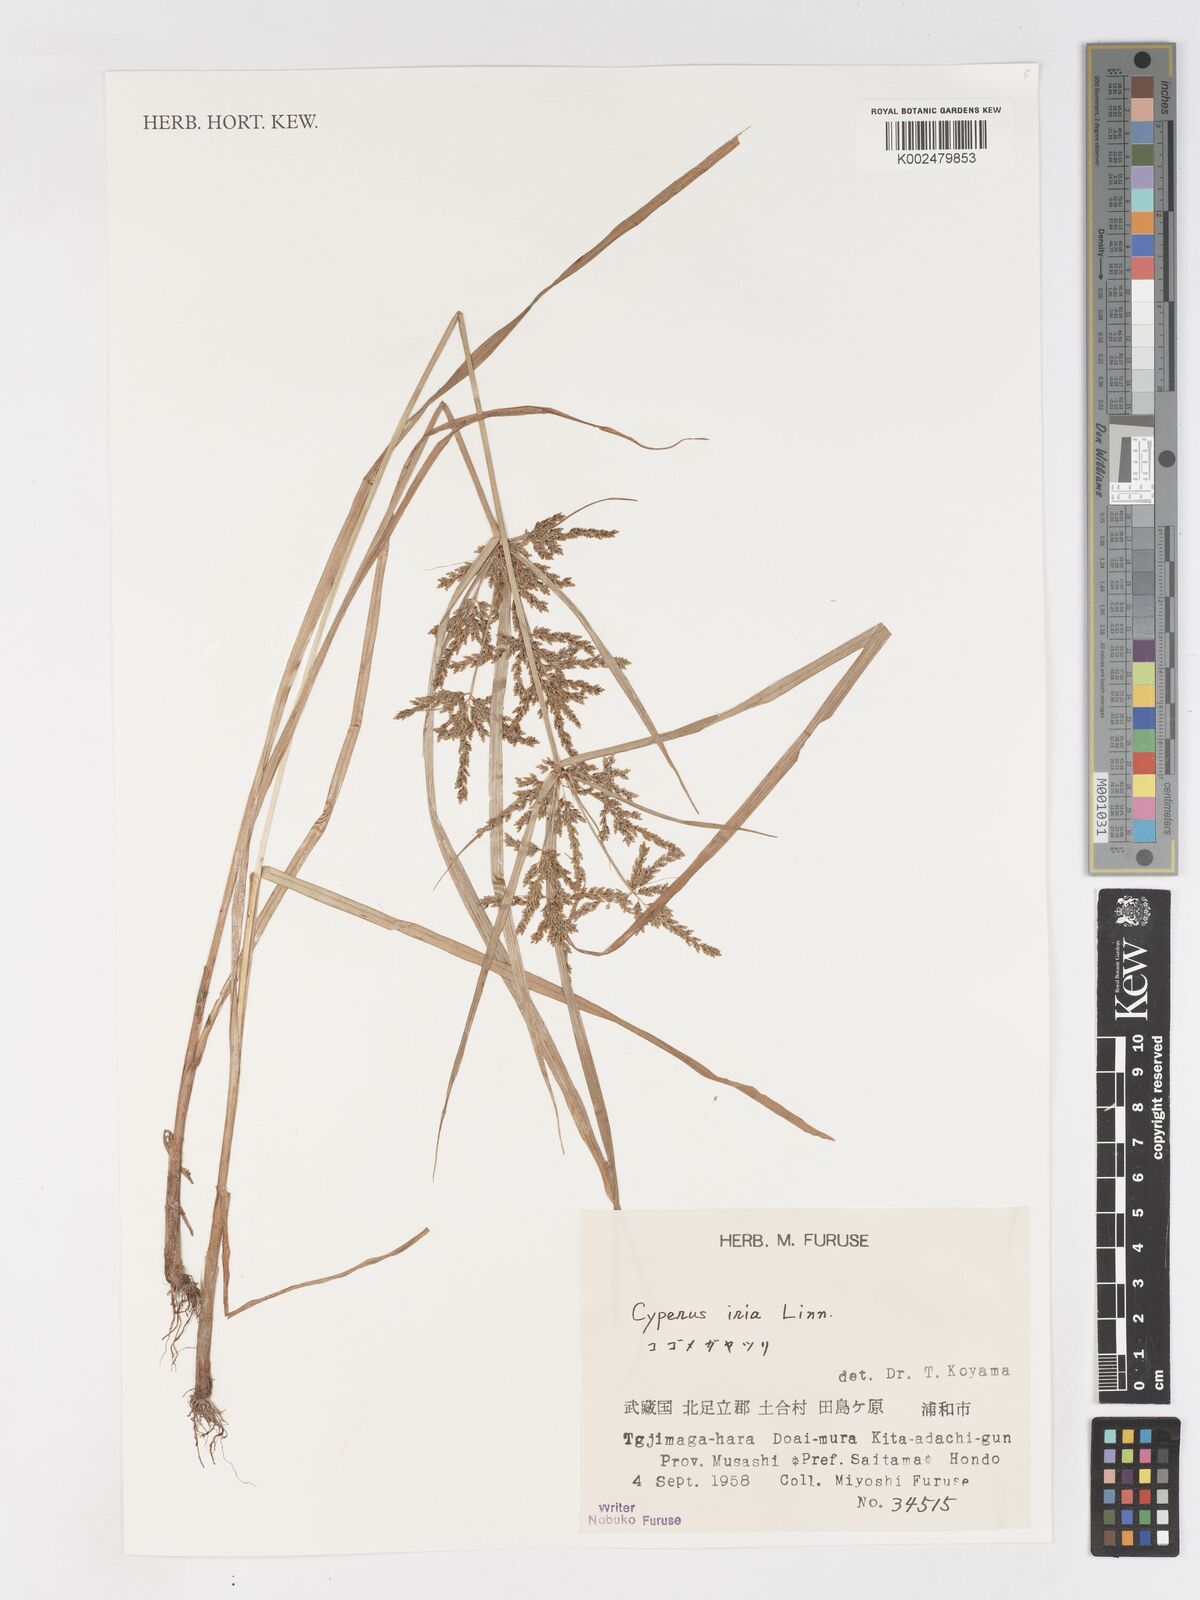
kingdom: Plantae
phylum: Tracheophyta
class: Liliopsida
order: Poales
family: Cyperaceae
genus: Cyperus
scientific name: Cyperus iria
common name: Ricefield flatsedge
